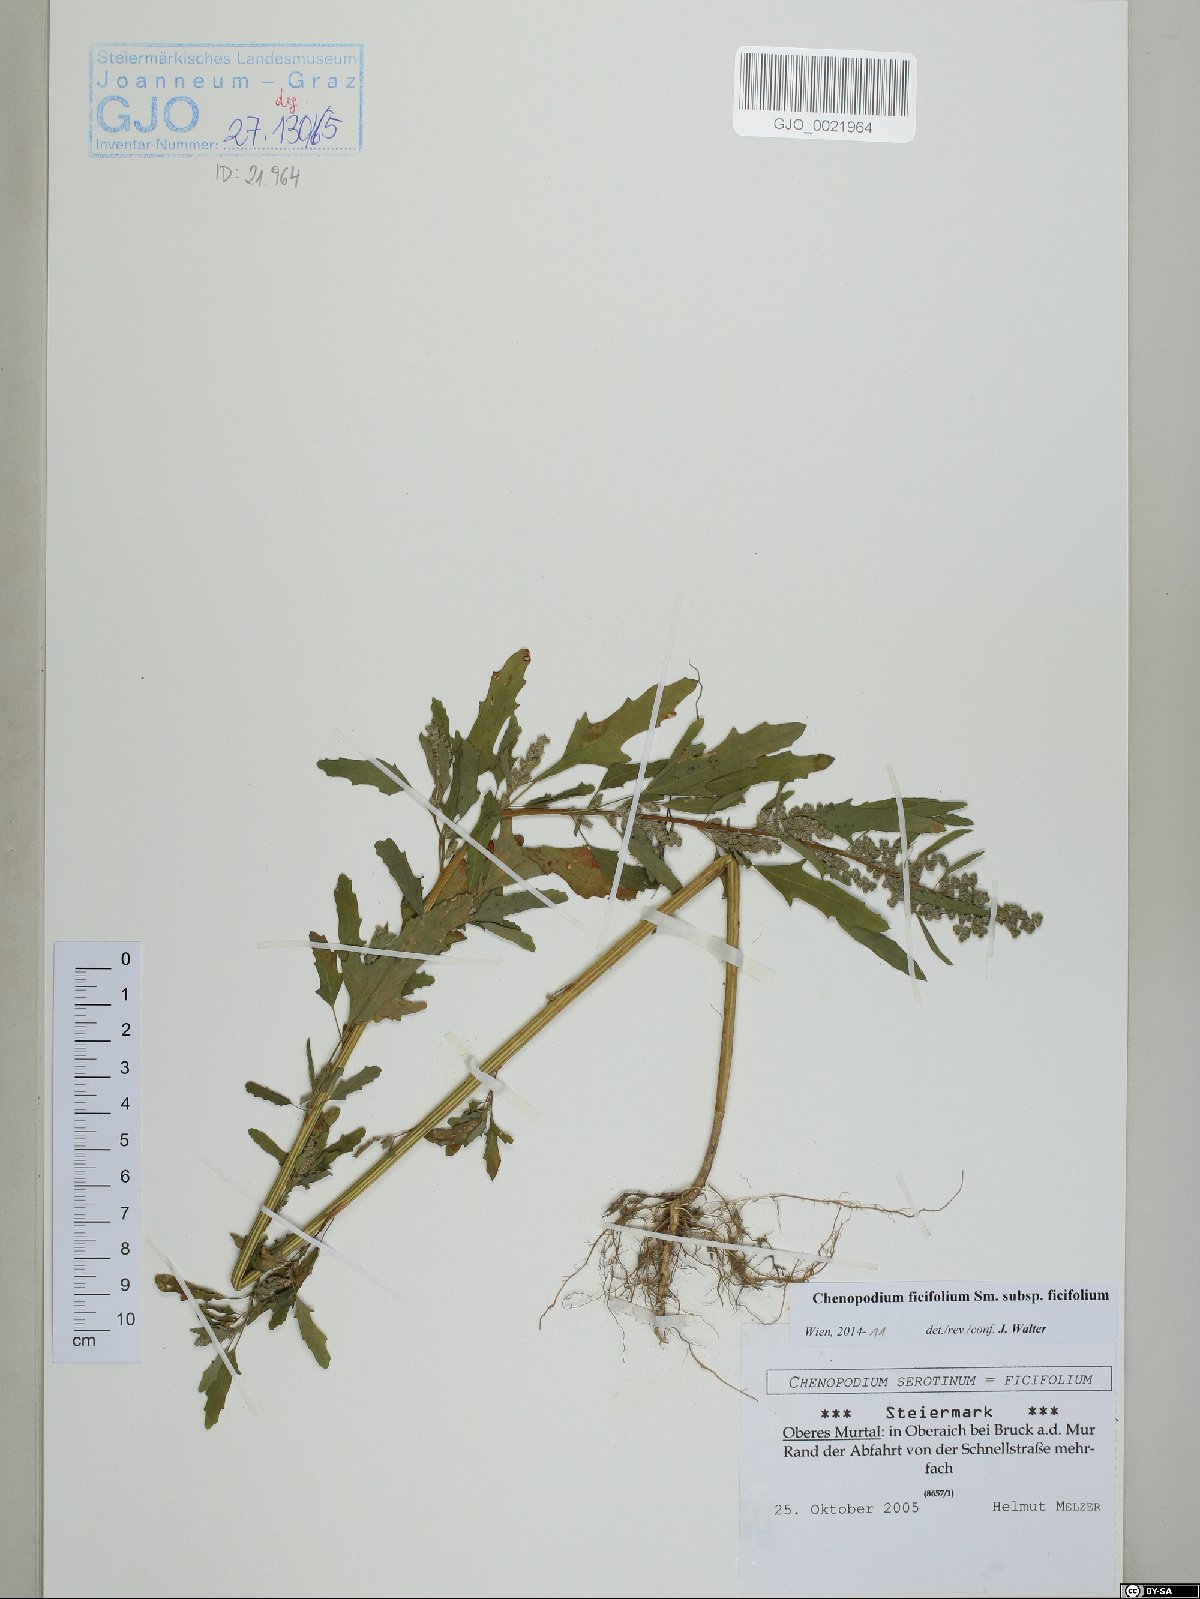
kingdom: Plantae
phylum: Tracheophyta
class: Magnoliopsida
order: Caryophyllales
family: Amaranthaceae
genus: Chenopodium
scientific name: Chenopodium ficifolium
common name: Fig-leaved goosefoot
